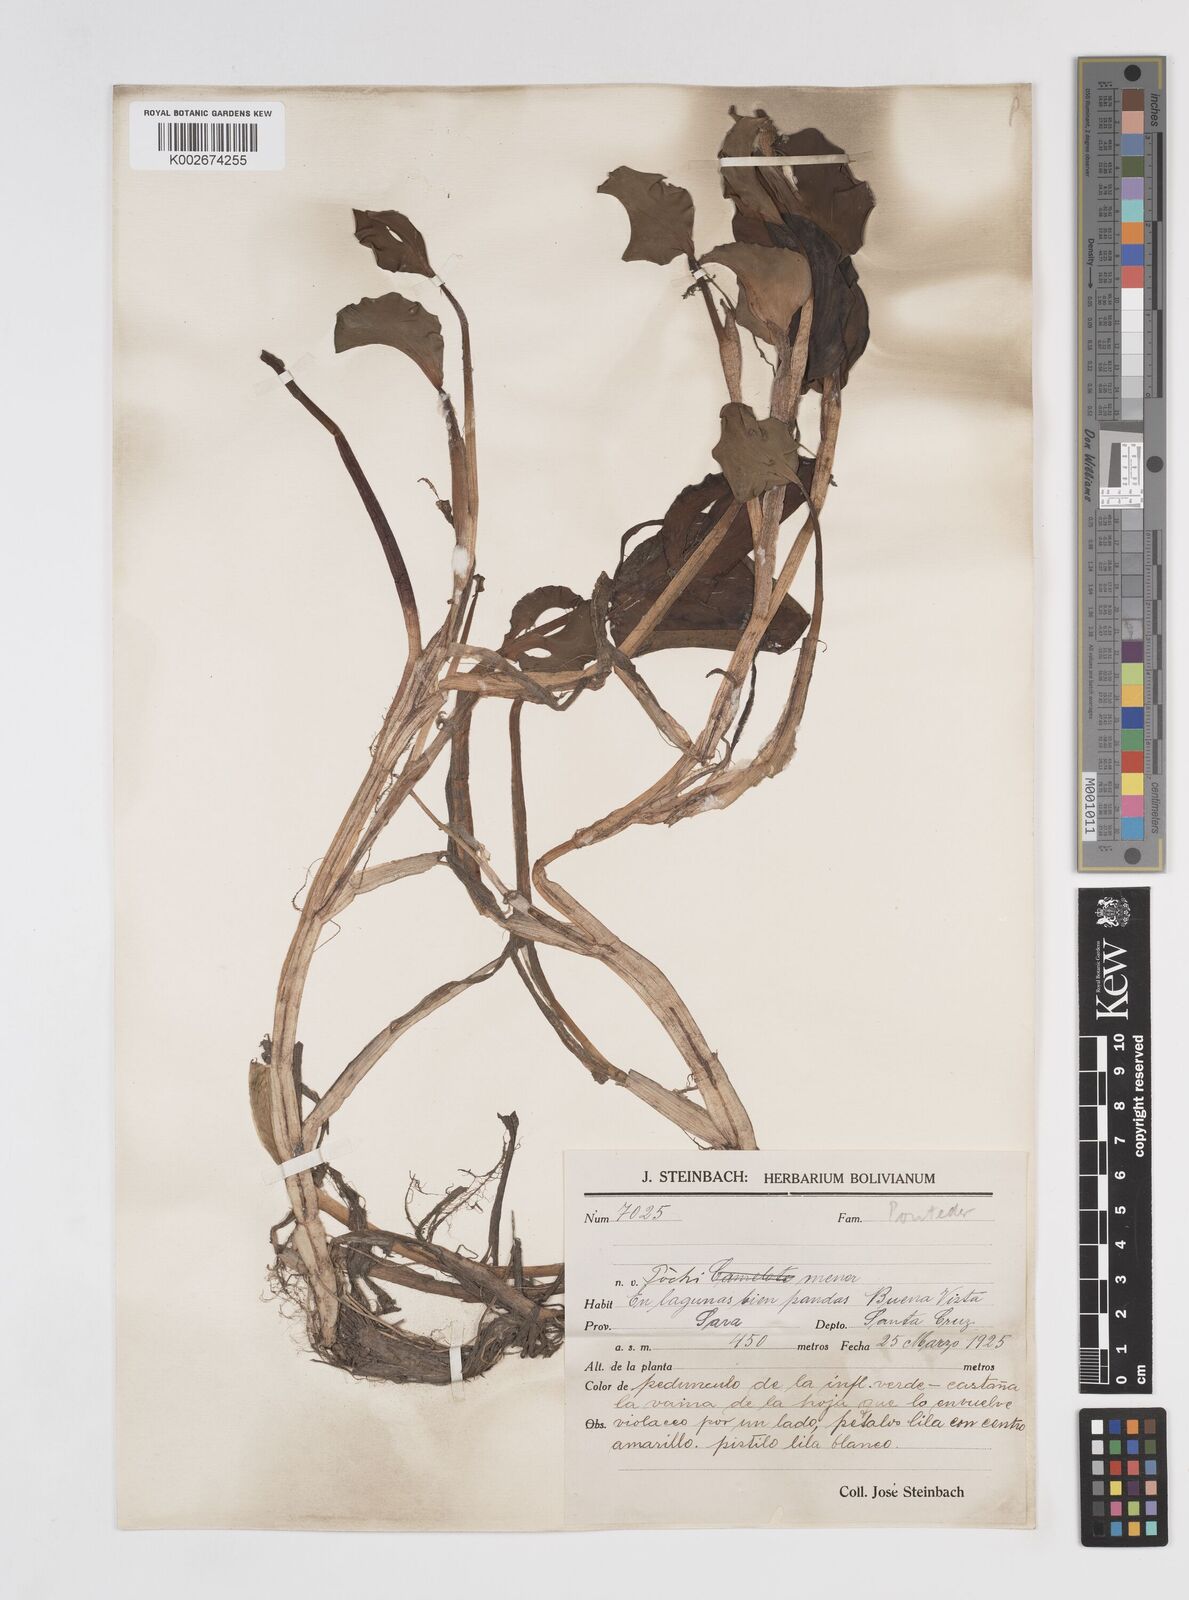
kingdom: Plantae
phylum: Tracheophyta
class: Liliopsida
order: Commelinales
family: Pontederiaceae
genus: Pontederia
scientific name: Pontederia subovata
